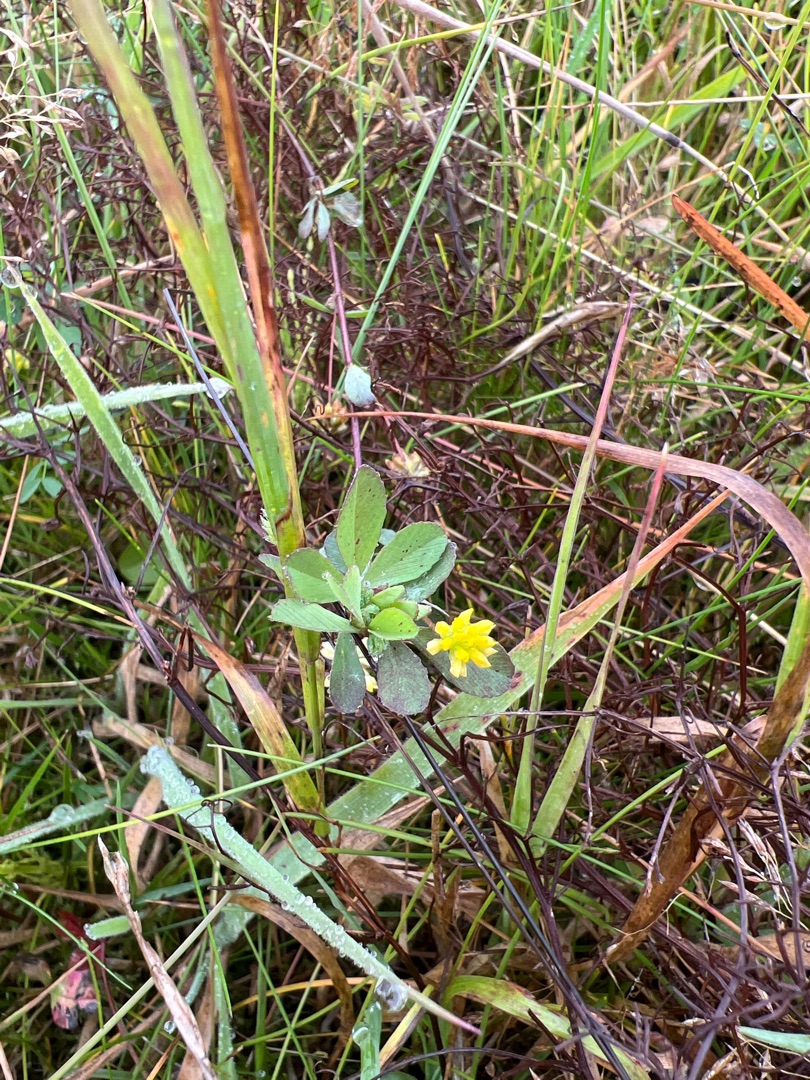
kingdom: Plantae
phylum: Tracheophyta
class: Magnoliopsida
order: Fabales
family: Fabaceae
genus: Trifolium
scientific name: Trifolium dubium
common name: Fin kløver
